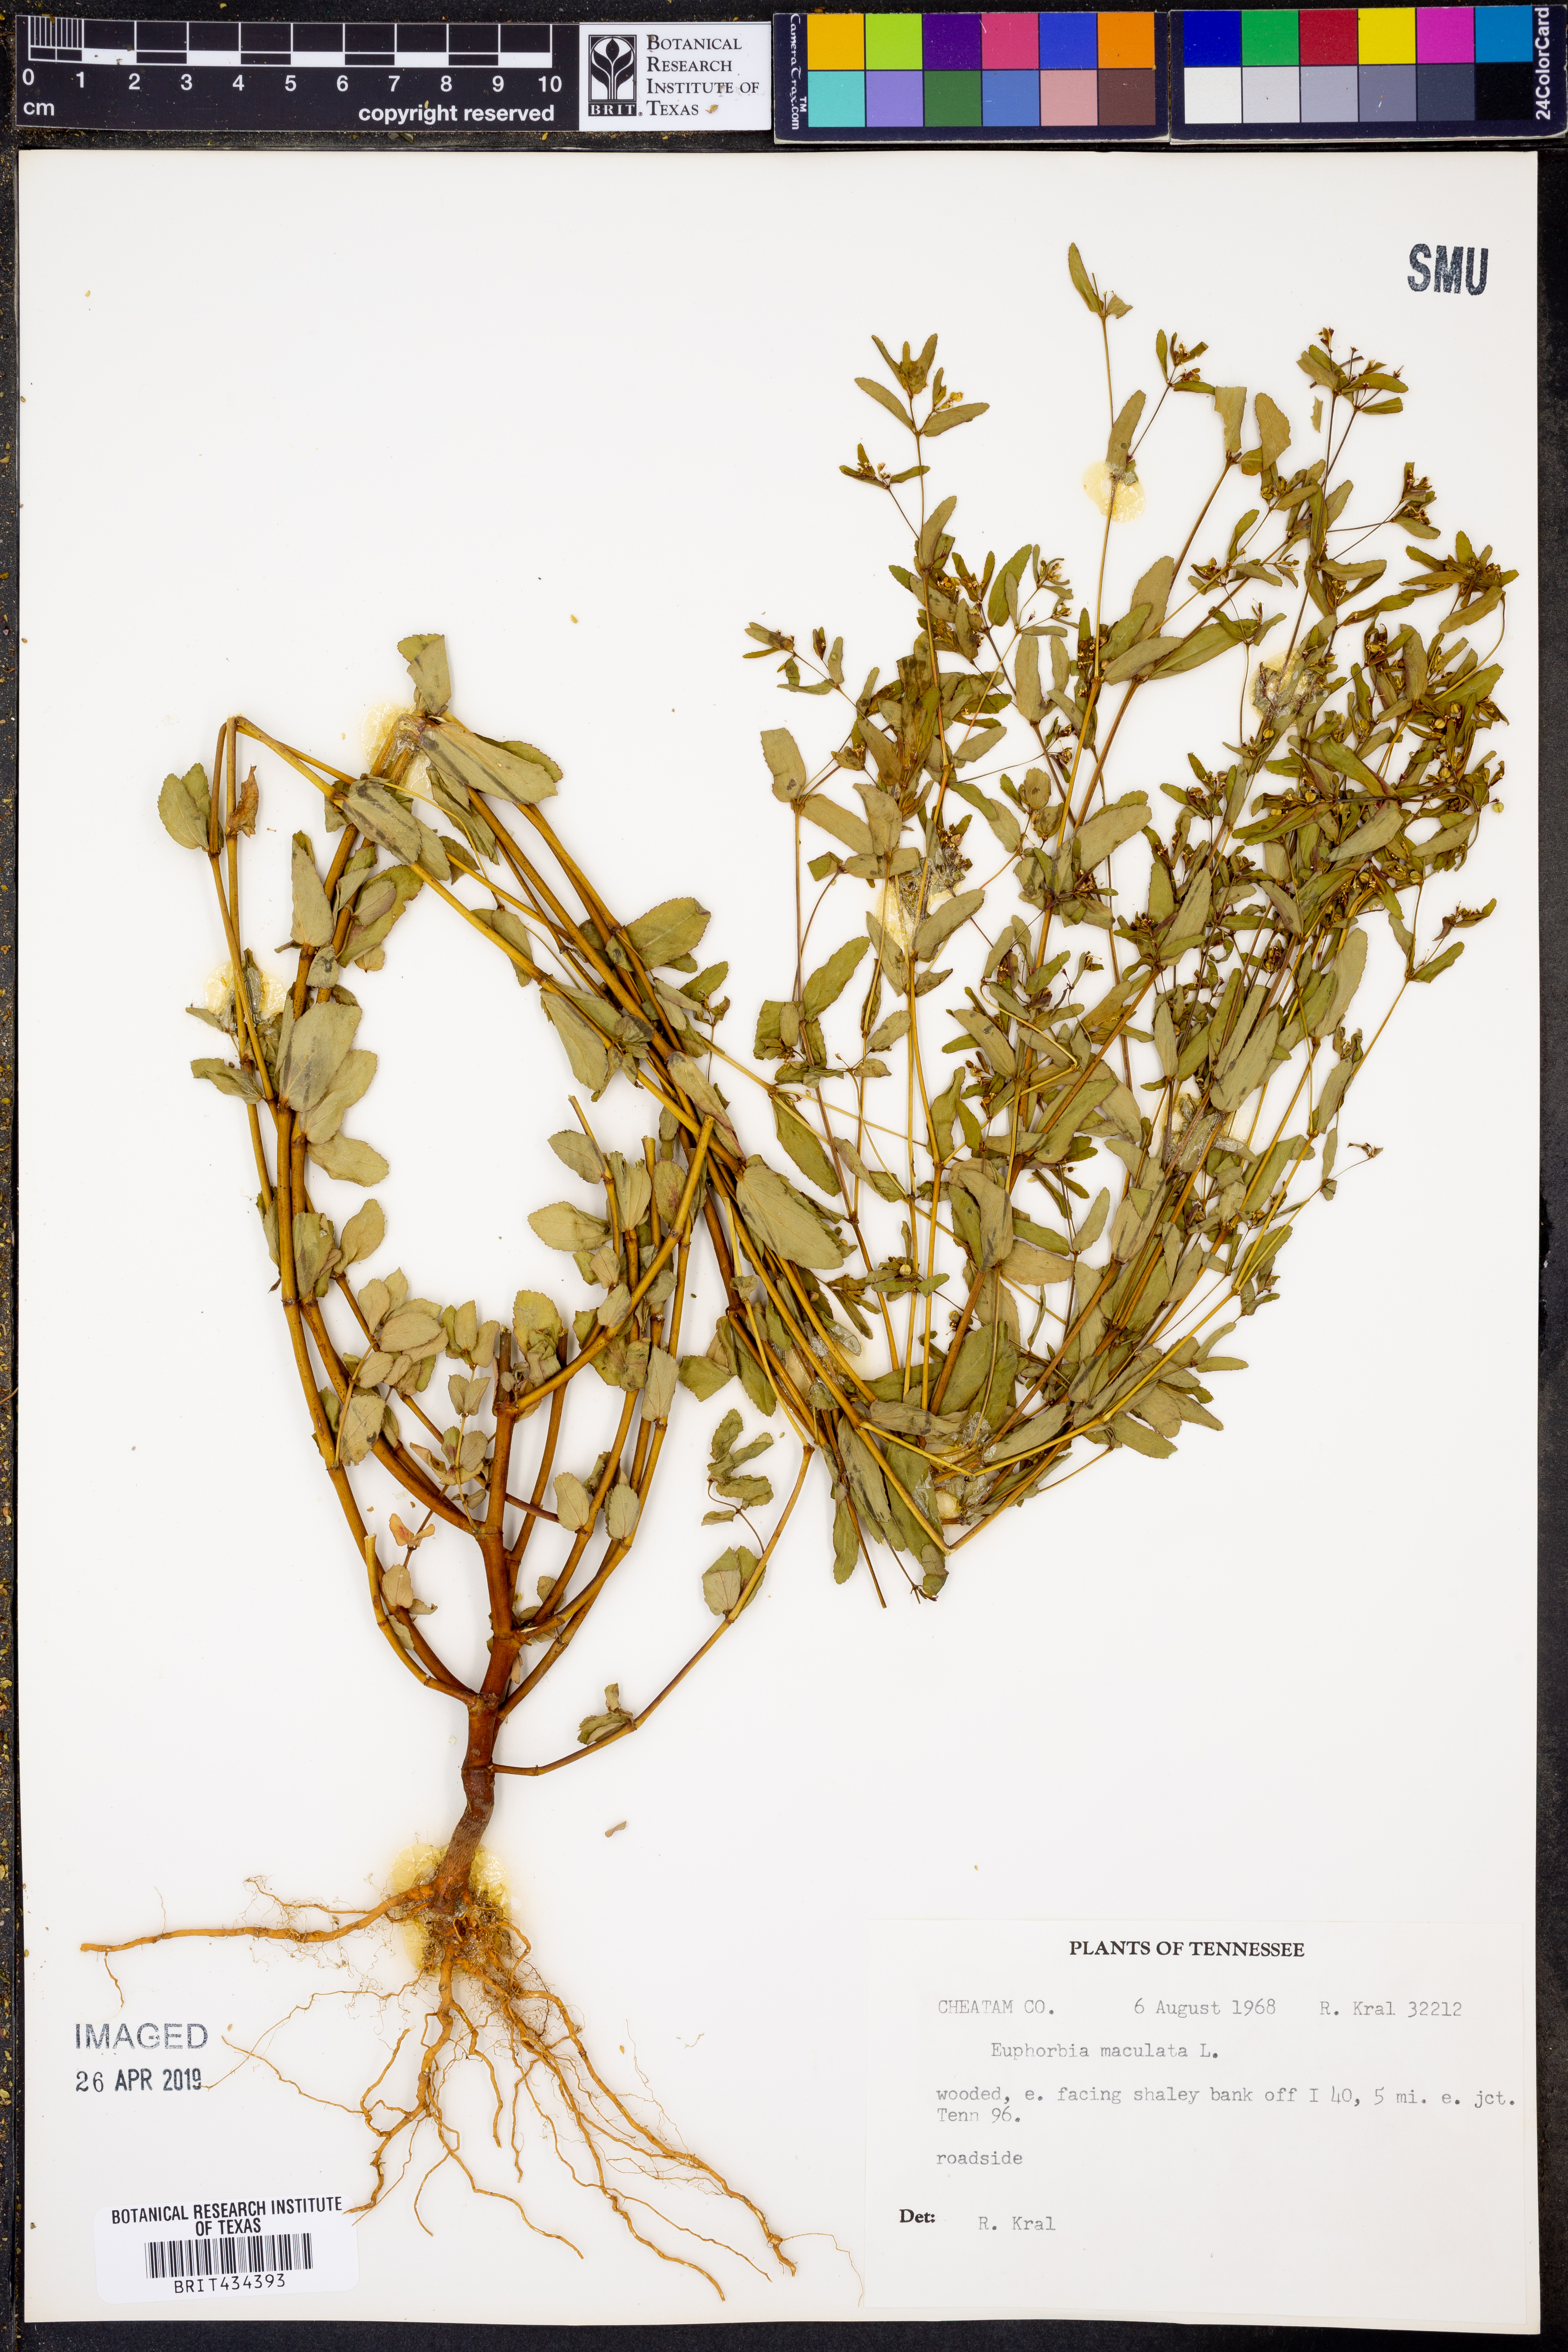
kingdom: Plantae
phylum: Tracheophyta
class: Magnoliopsida
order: Malpighiales
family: Euphorbiaceae
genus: Euphorbia
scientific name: Euphorbia maculata
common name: Spotted spurge
